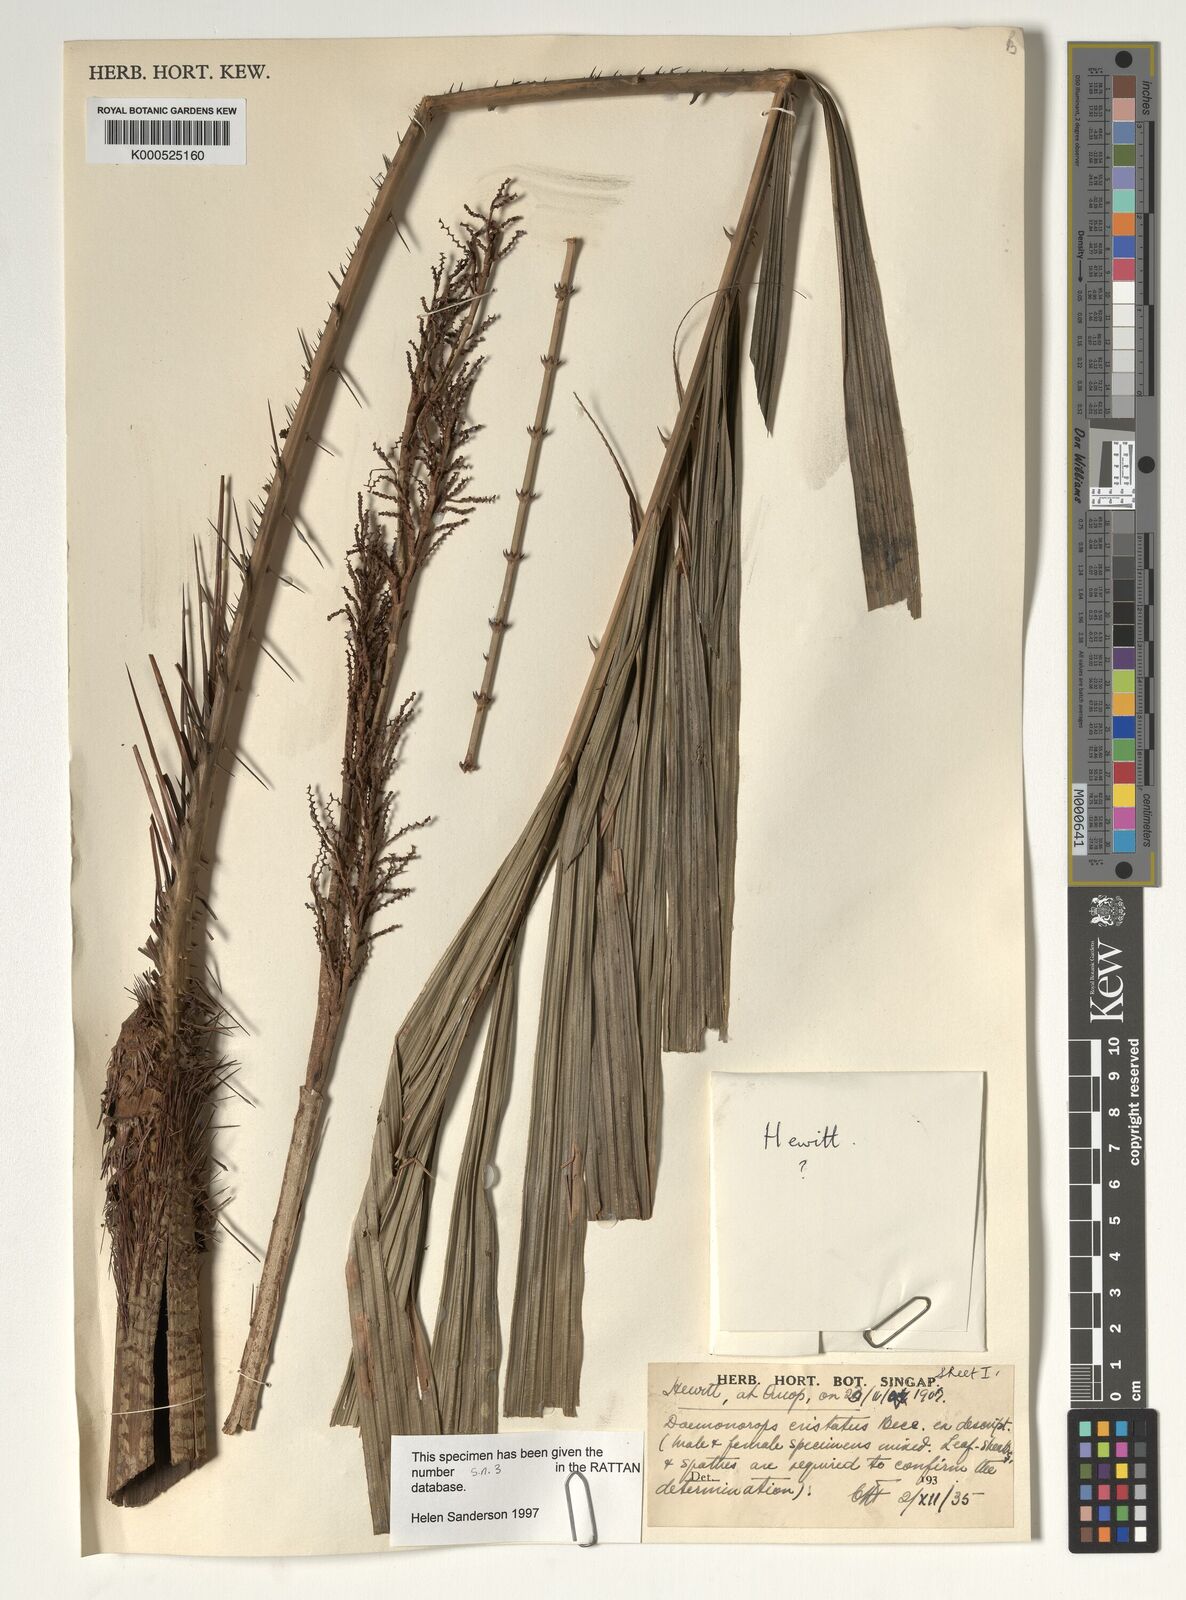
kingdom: Plantae
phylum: Tracheophyta
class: Liliopsida
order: Arecales
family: Arecaceae
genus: Calamus
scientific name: Calamus cristatus
